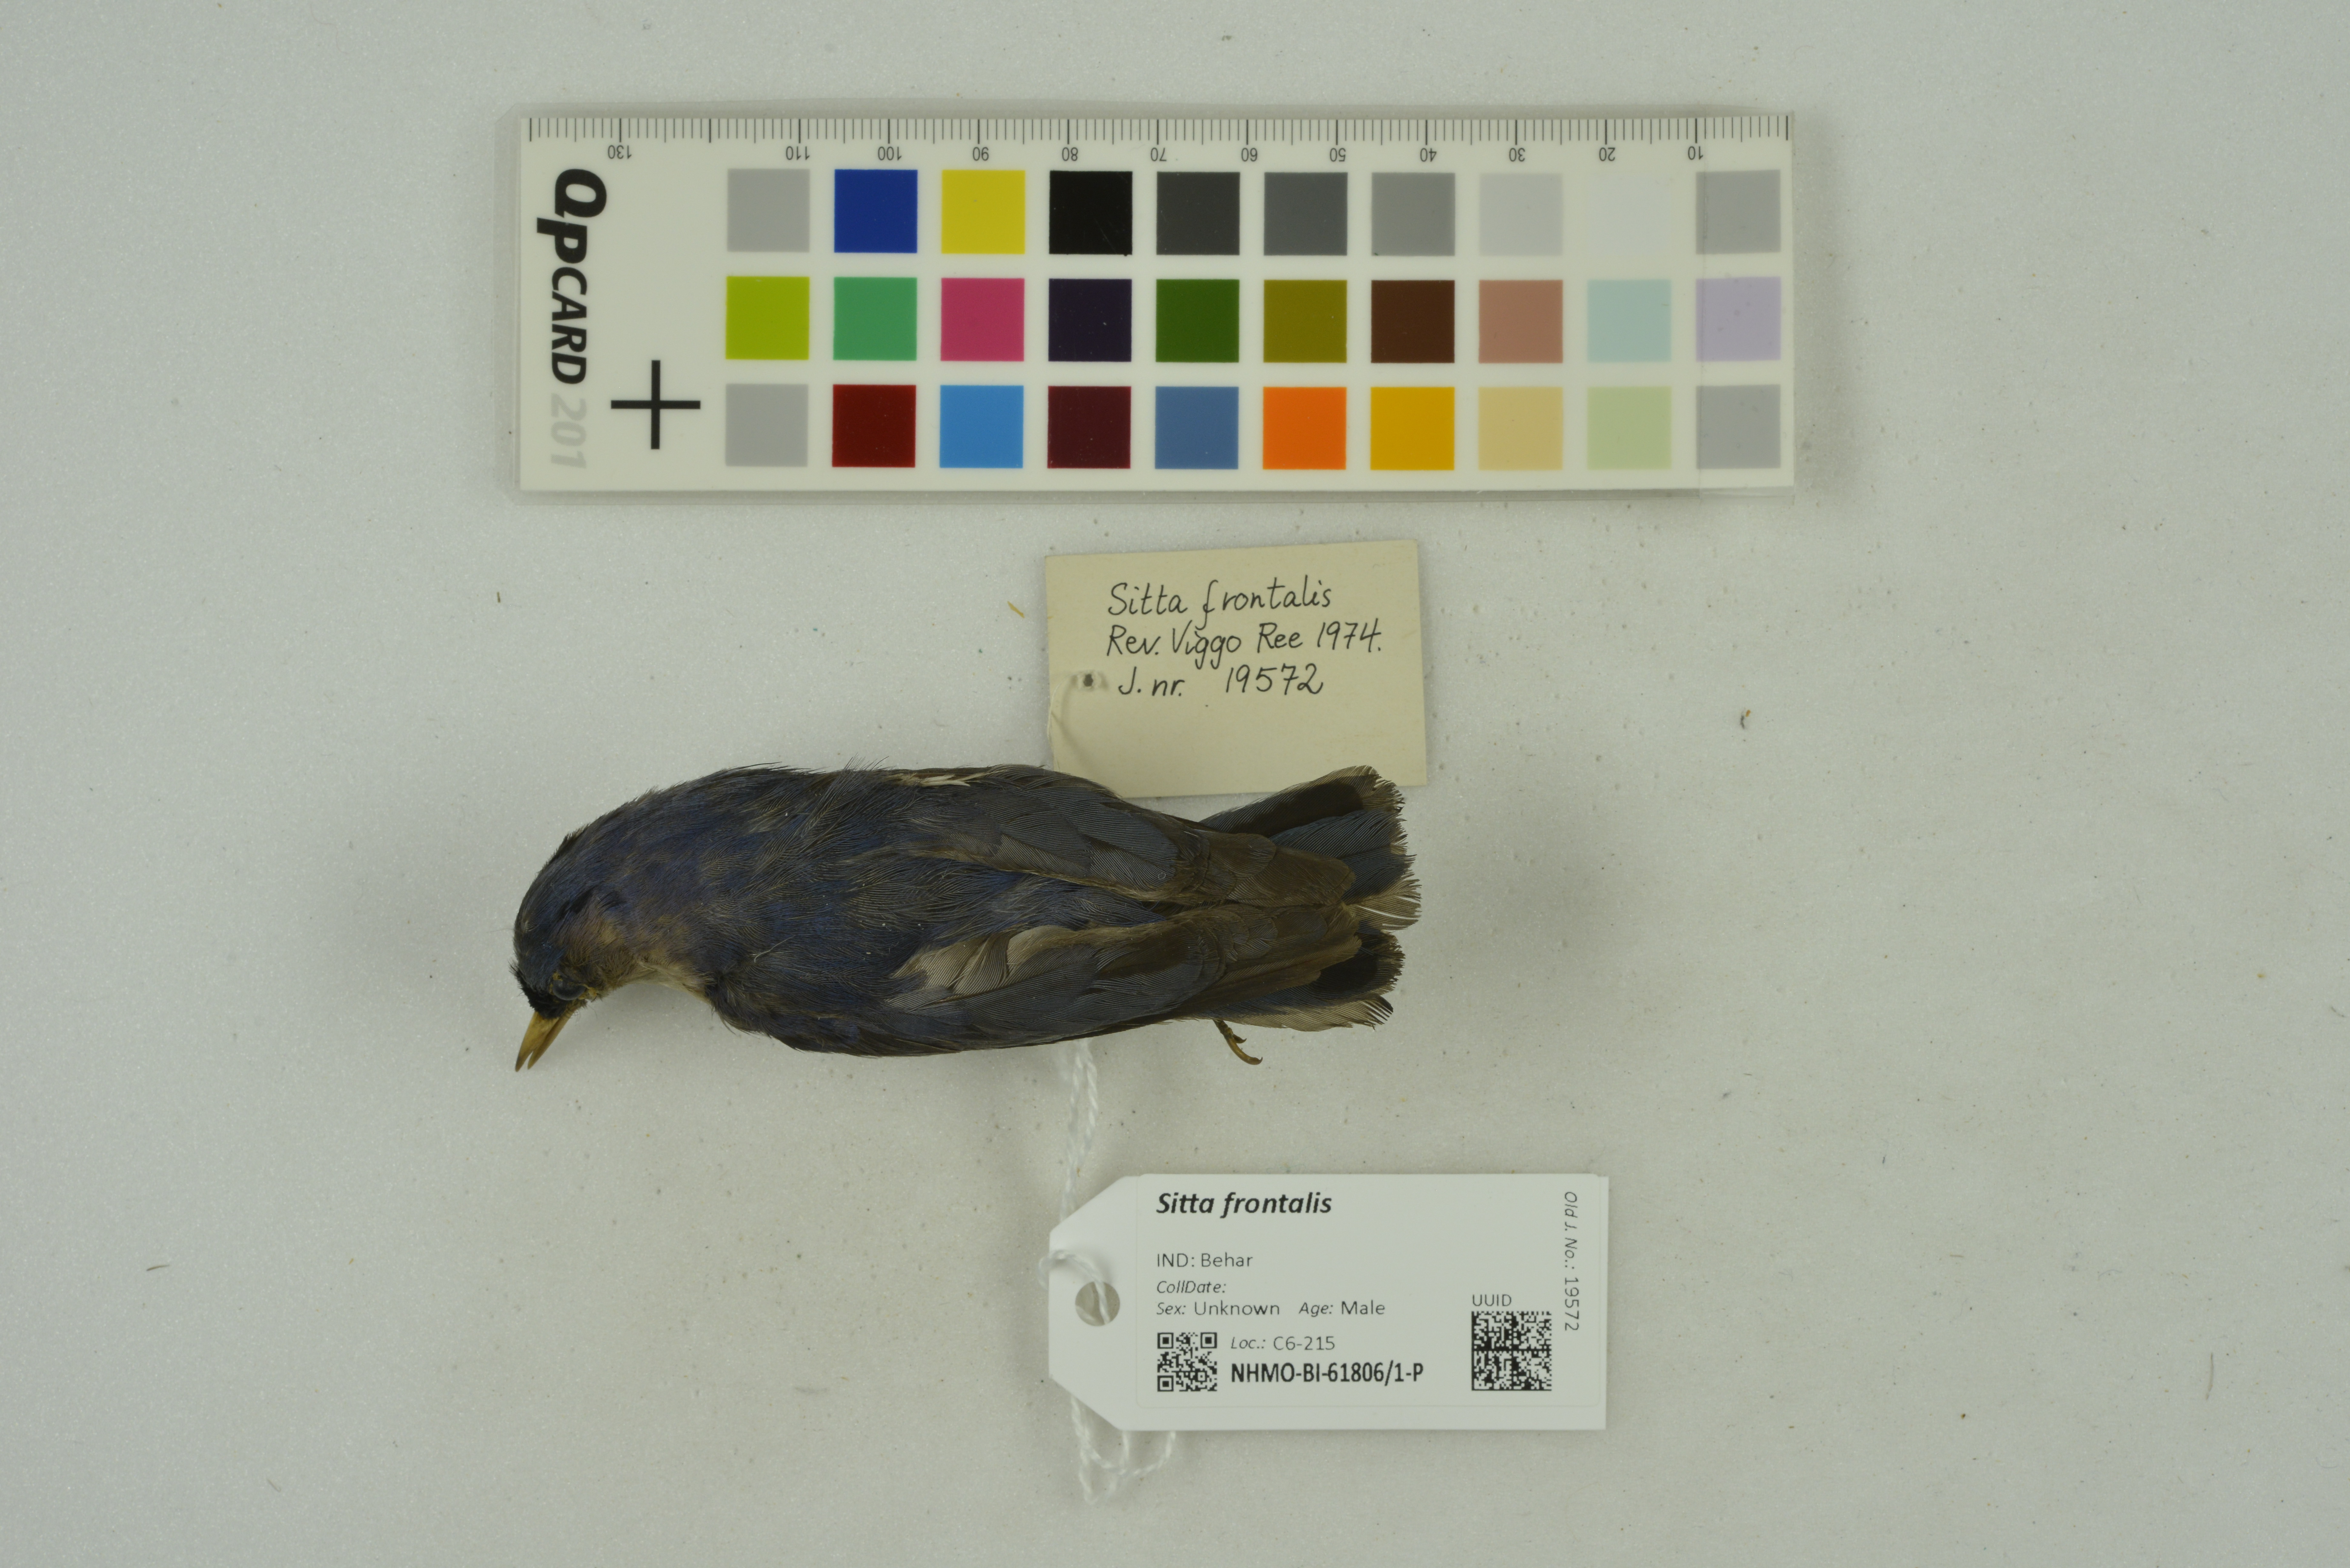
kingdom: Animalia
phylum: Chordata
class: Aves
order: Passeriformes
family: Sittidae
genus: Sitta
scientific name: Sitta frontalis
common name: Velvet-fronted nuthatch
